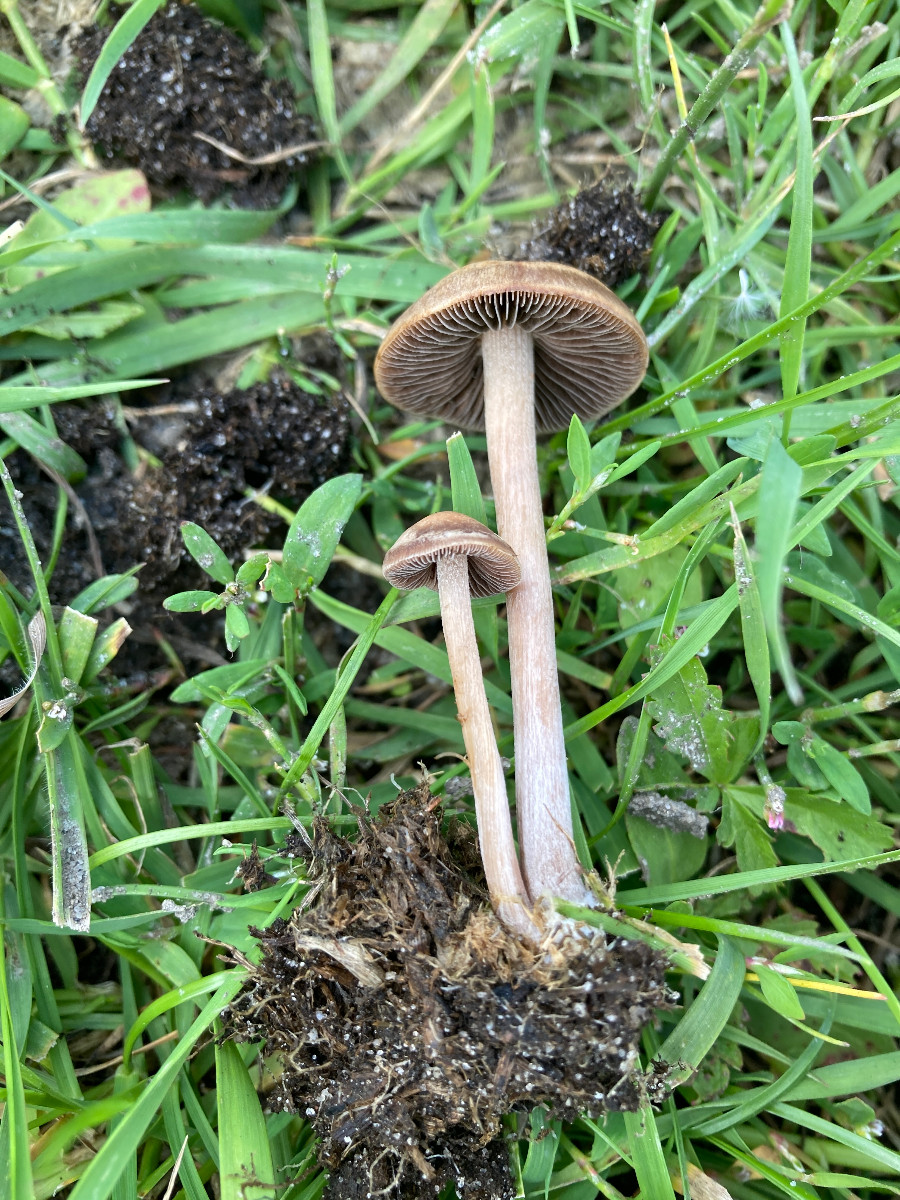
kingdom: Fungi
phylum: Basidiomycota
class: Agaricomycetes
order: Agaricales
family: Bolbitiaceae
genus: Panaeolina
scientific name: Panaeolina foenisecii
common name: høslætsvamp
